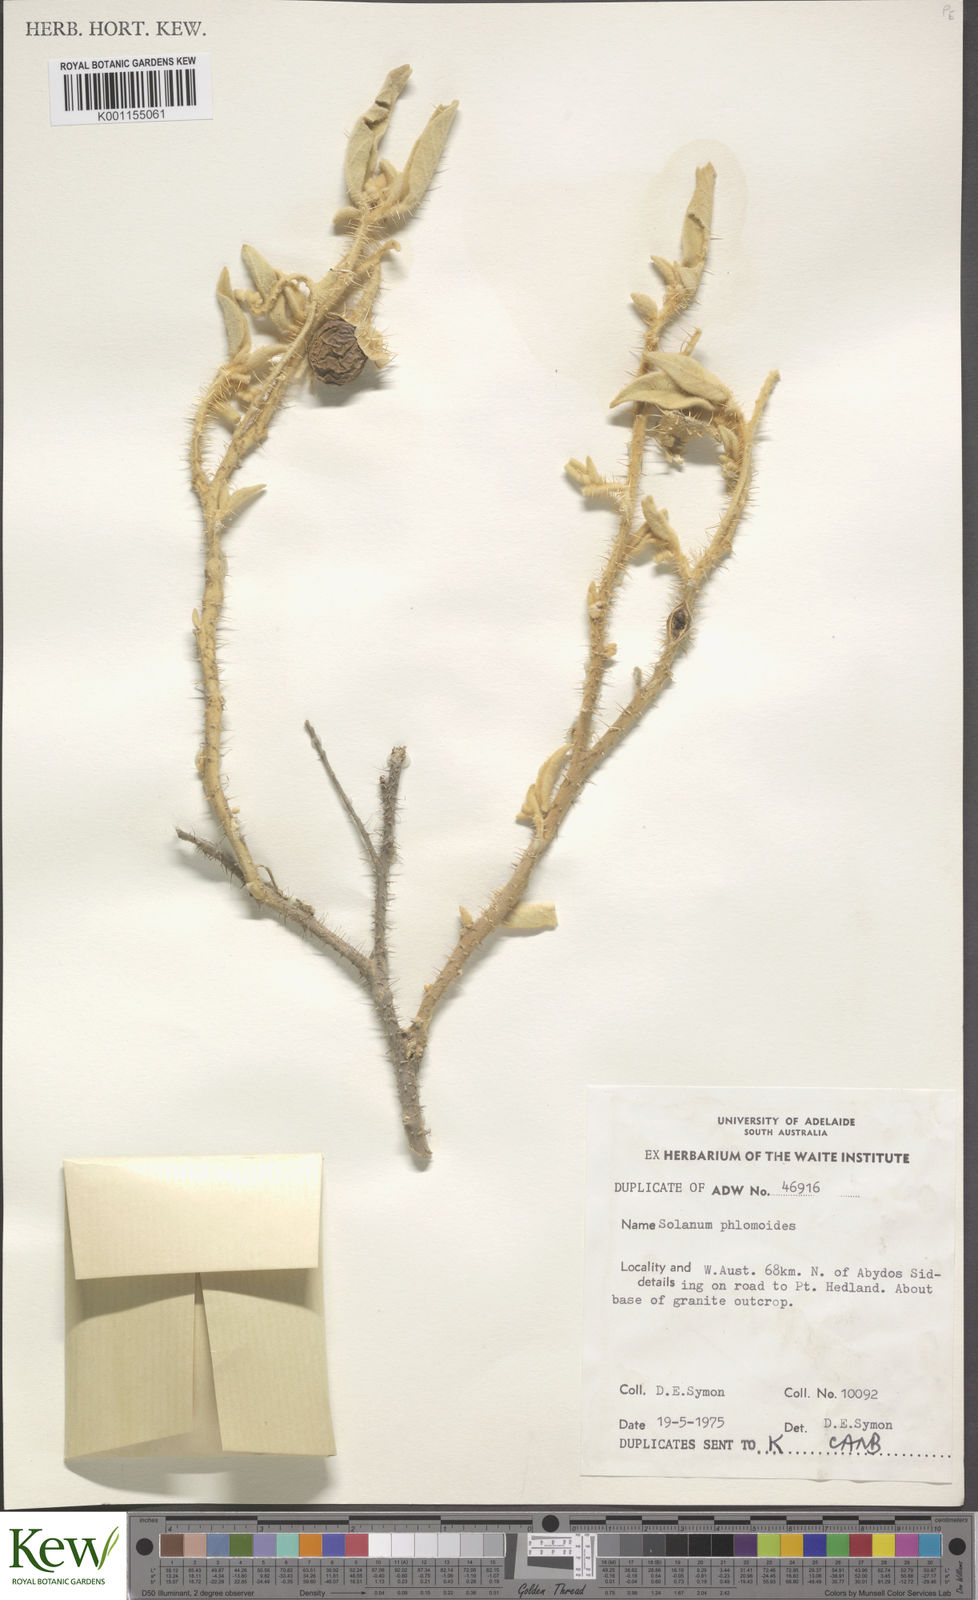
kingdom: Plantae
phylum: Tracheophyta
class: Magnoliopsida
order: Solanales
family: Solanaceae
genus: Solanum
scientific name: Solanum phlomoides
